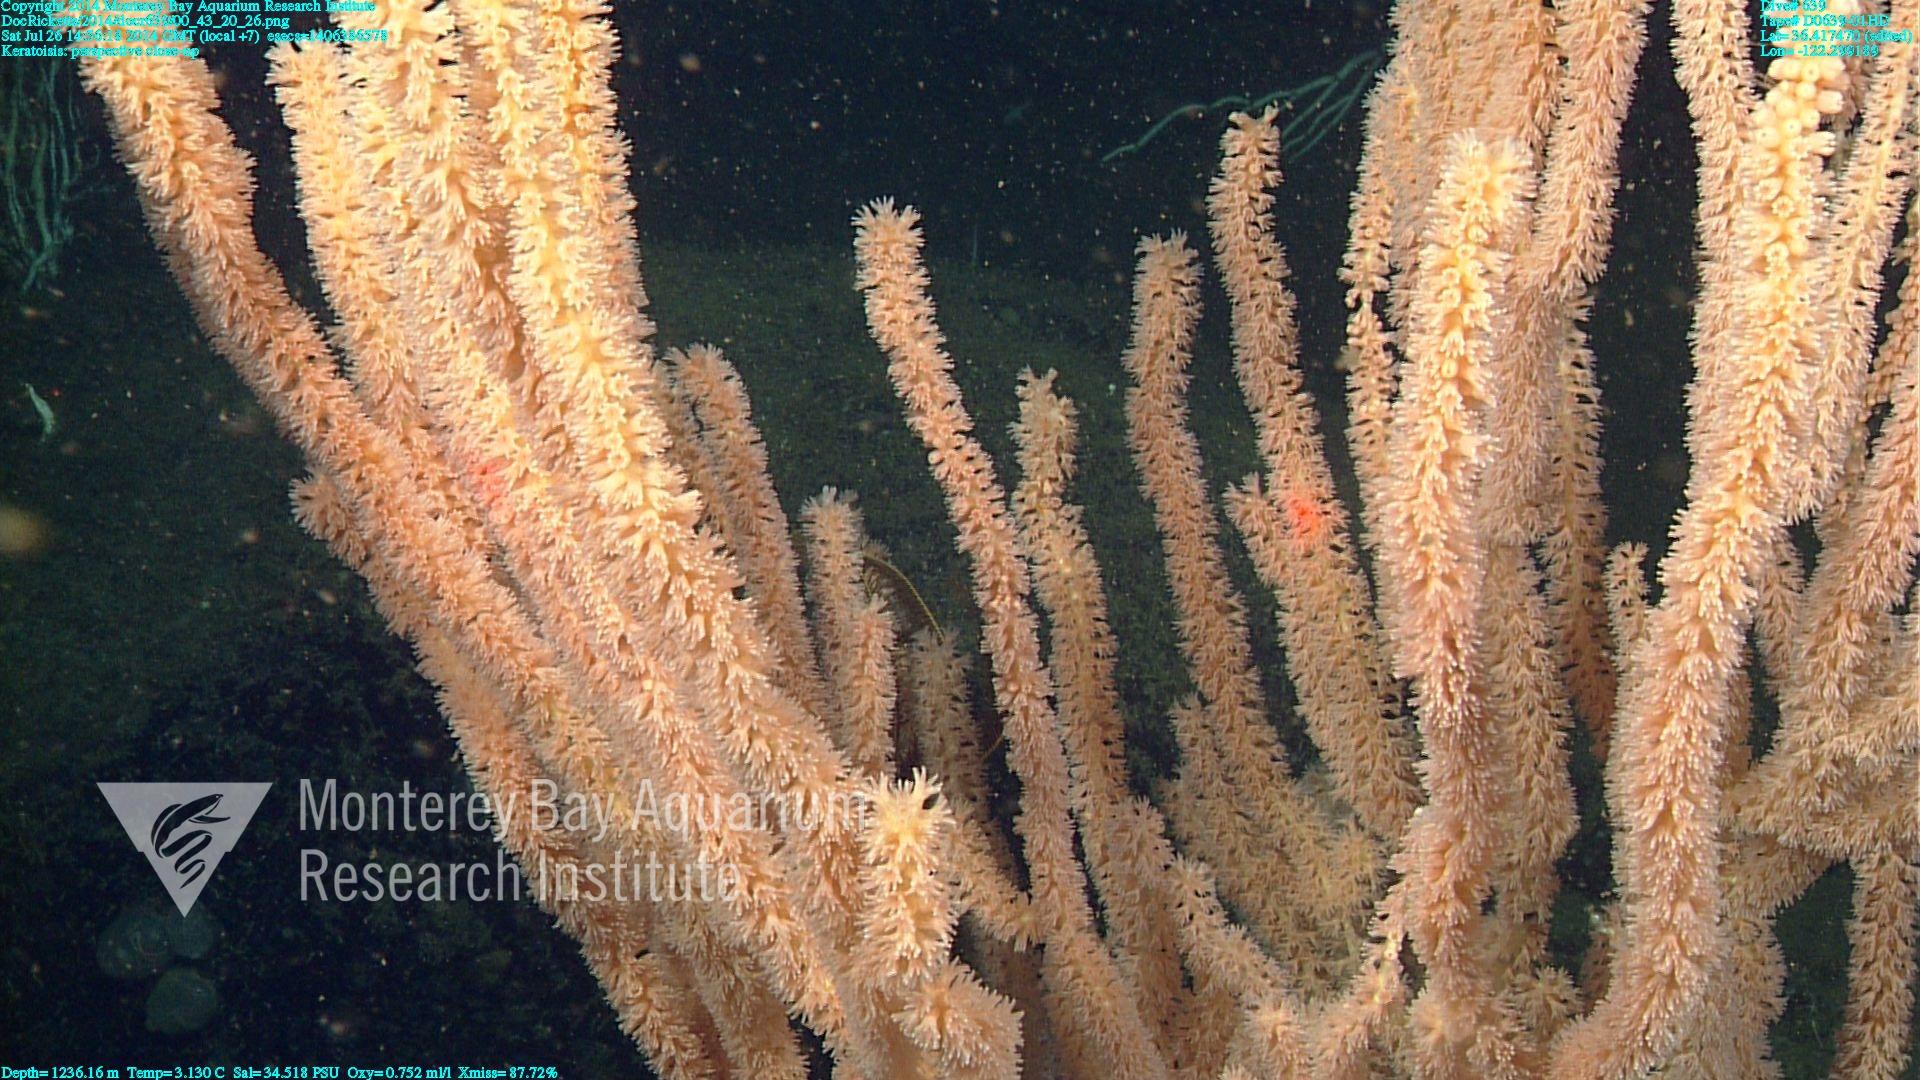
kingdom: Animalia
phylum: Cnidaria
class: Anthozoa
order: Scleralcyonacea
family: Keratoisididae
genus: Keratoisis
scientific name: Keratoisis
